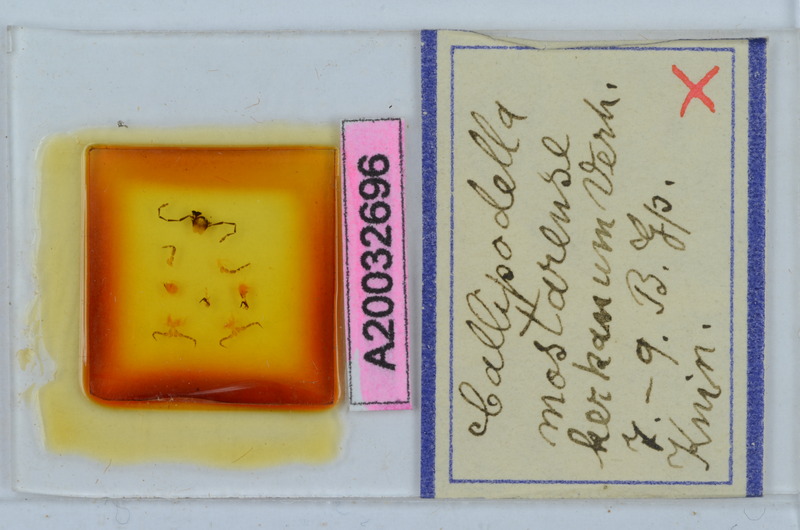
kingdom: Animalia
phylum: Arthropoda
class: Diplopoda
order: Callipodida
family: Schizopetalidae
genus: Callipodella
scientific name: Callipodella mostarensis
